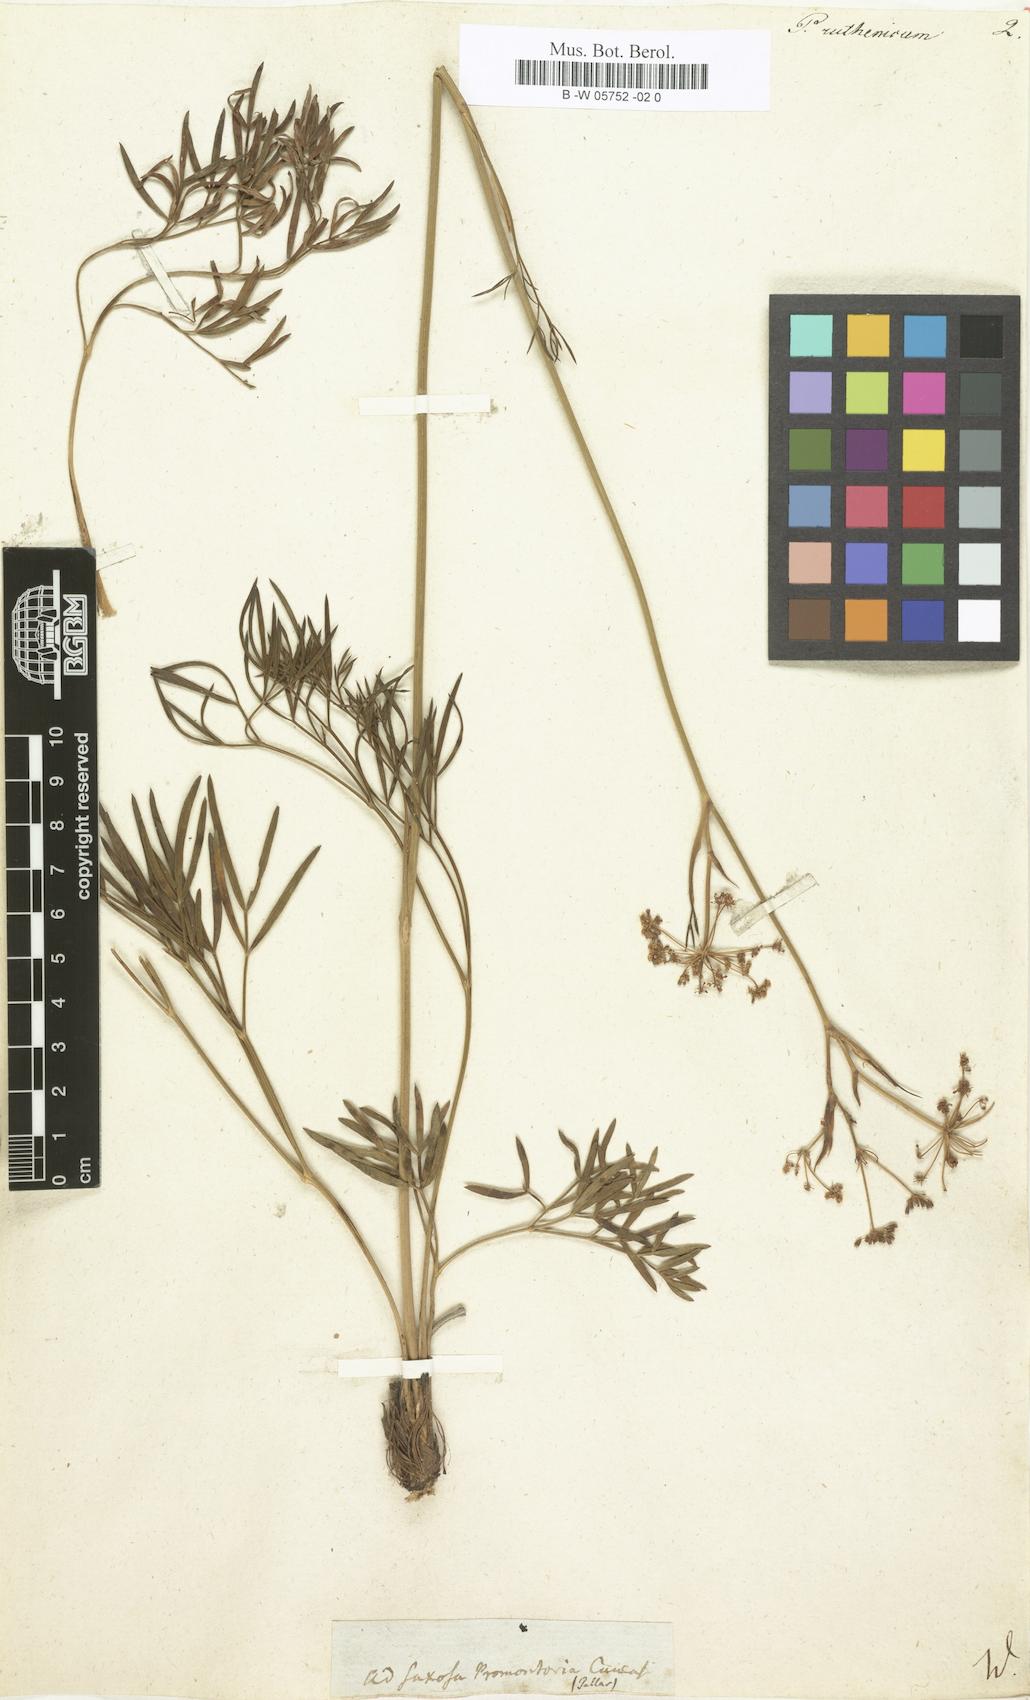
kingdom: Plantae
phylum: Tracheophyta
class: Magnoliopsida
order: Apiales
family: Apiaceae
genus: Peucedanum
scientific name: Peucedanum ruthenicum
